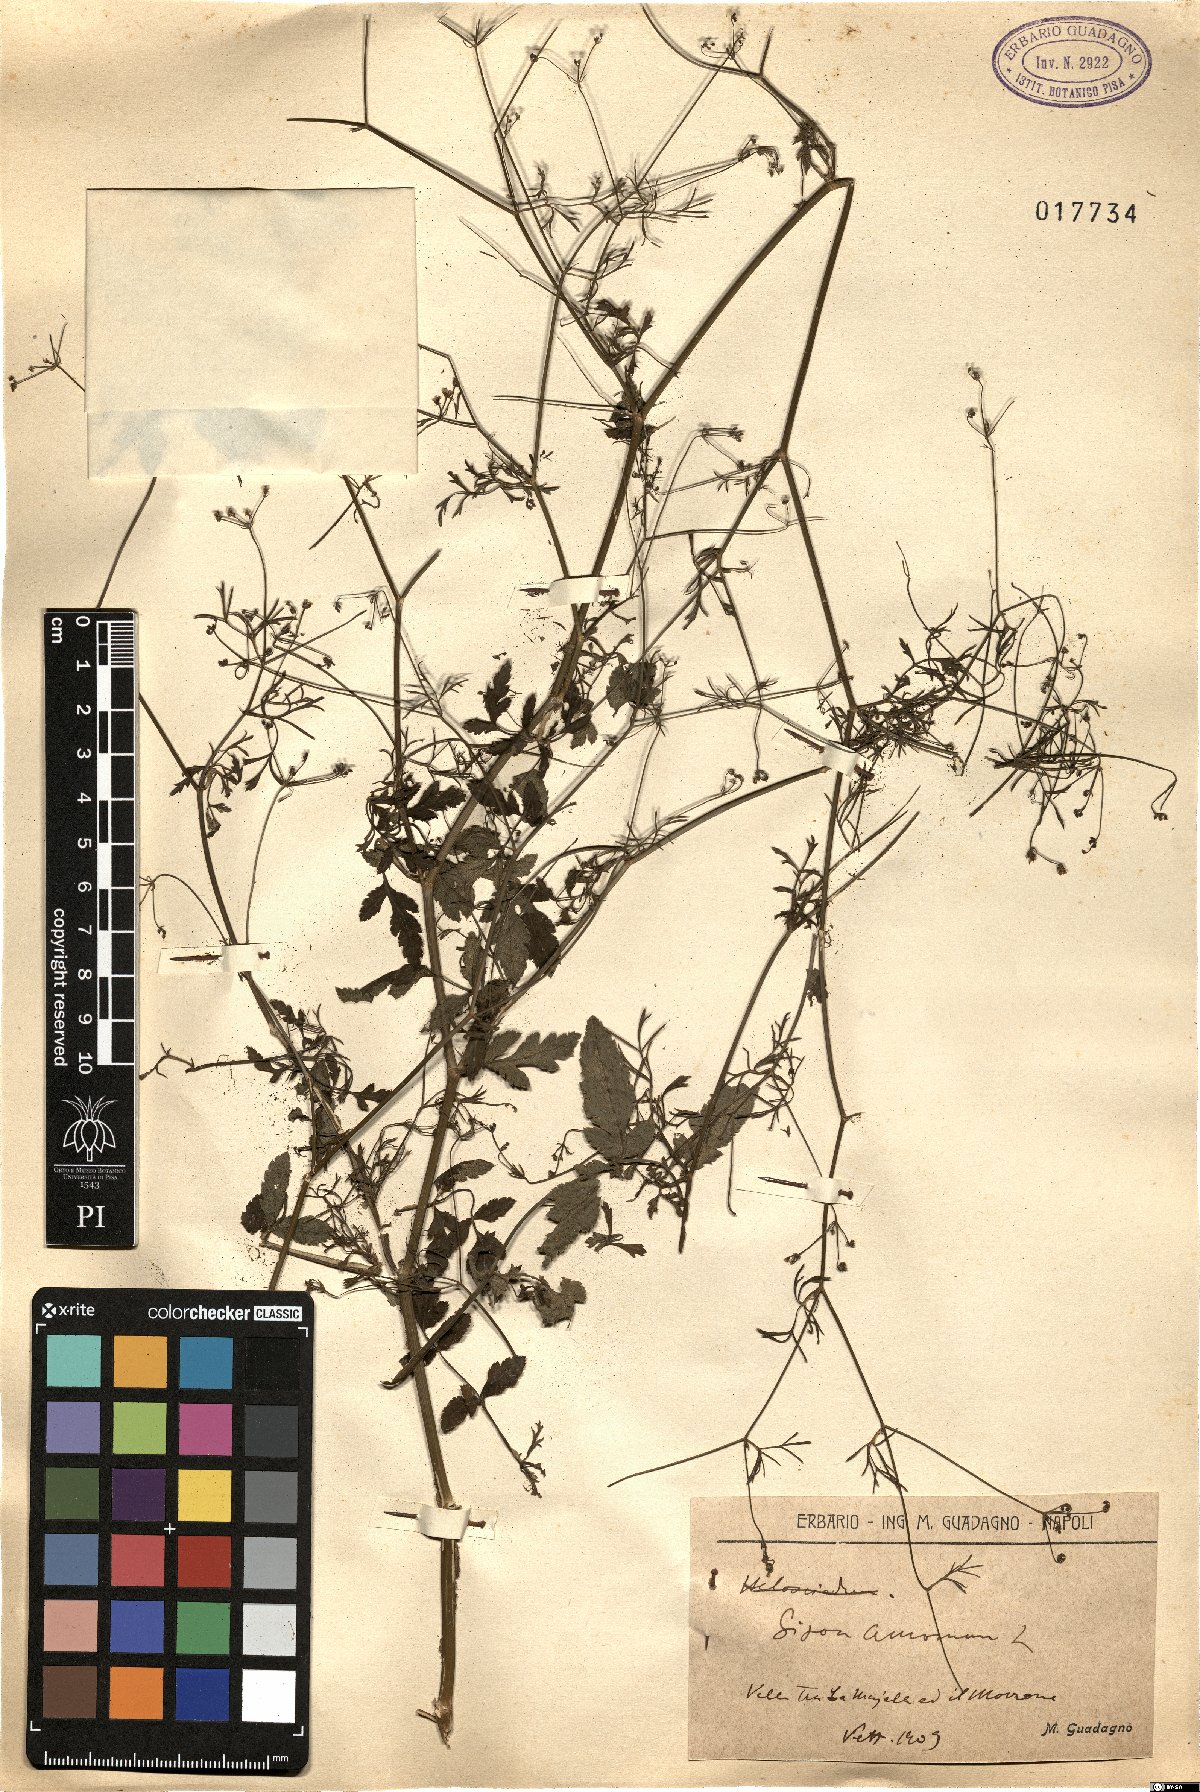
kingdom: Plantae
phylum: Tracheophyta
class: Magnoliopsida
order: Apiales
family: Apiaceae
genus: Sison
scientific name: Sison amomum
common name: Stone-parsley
